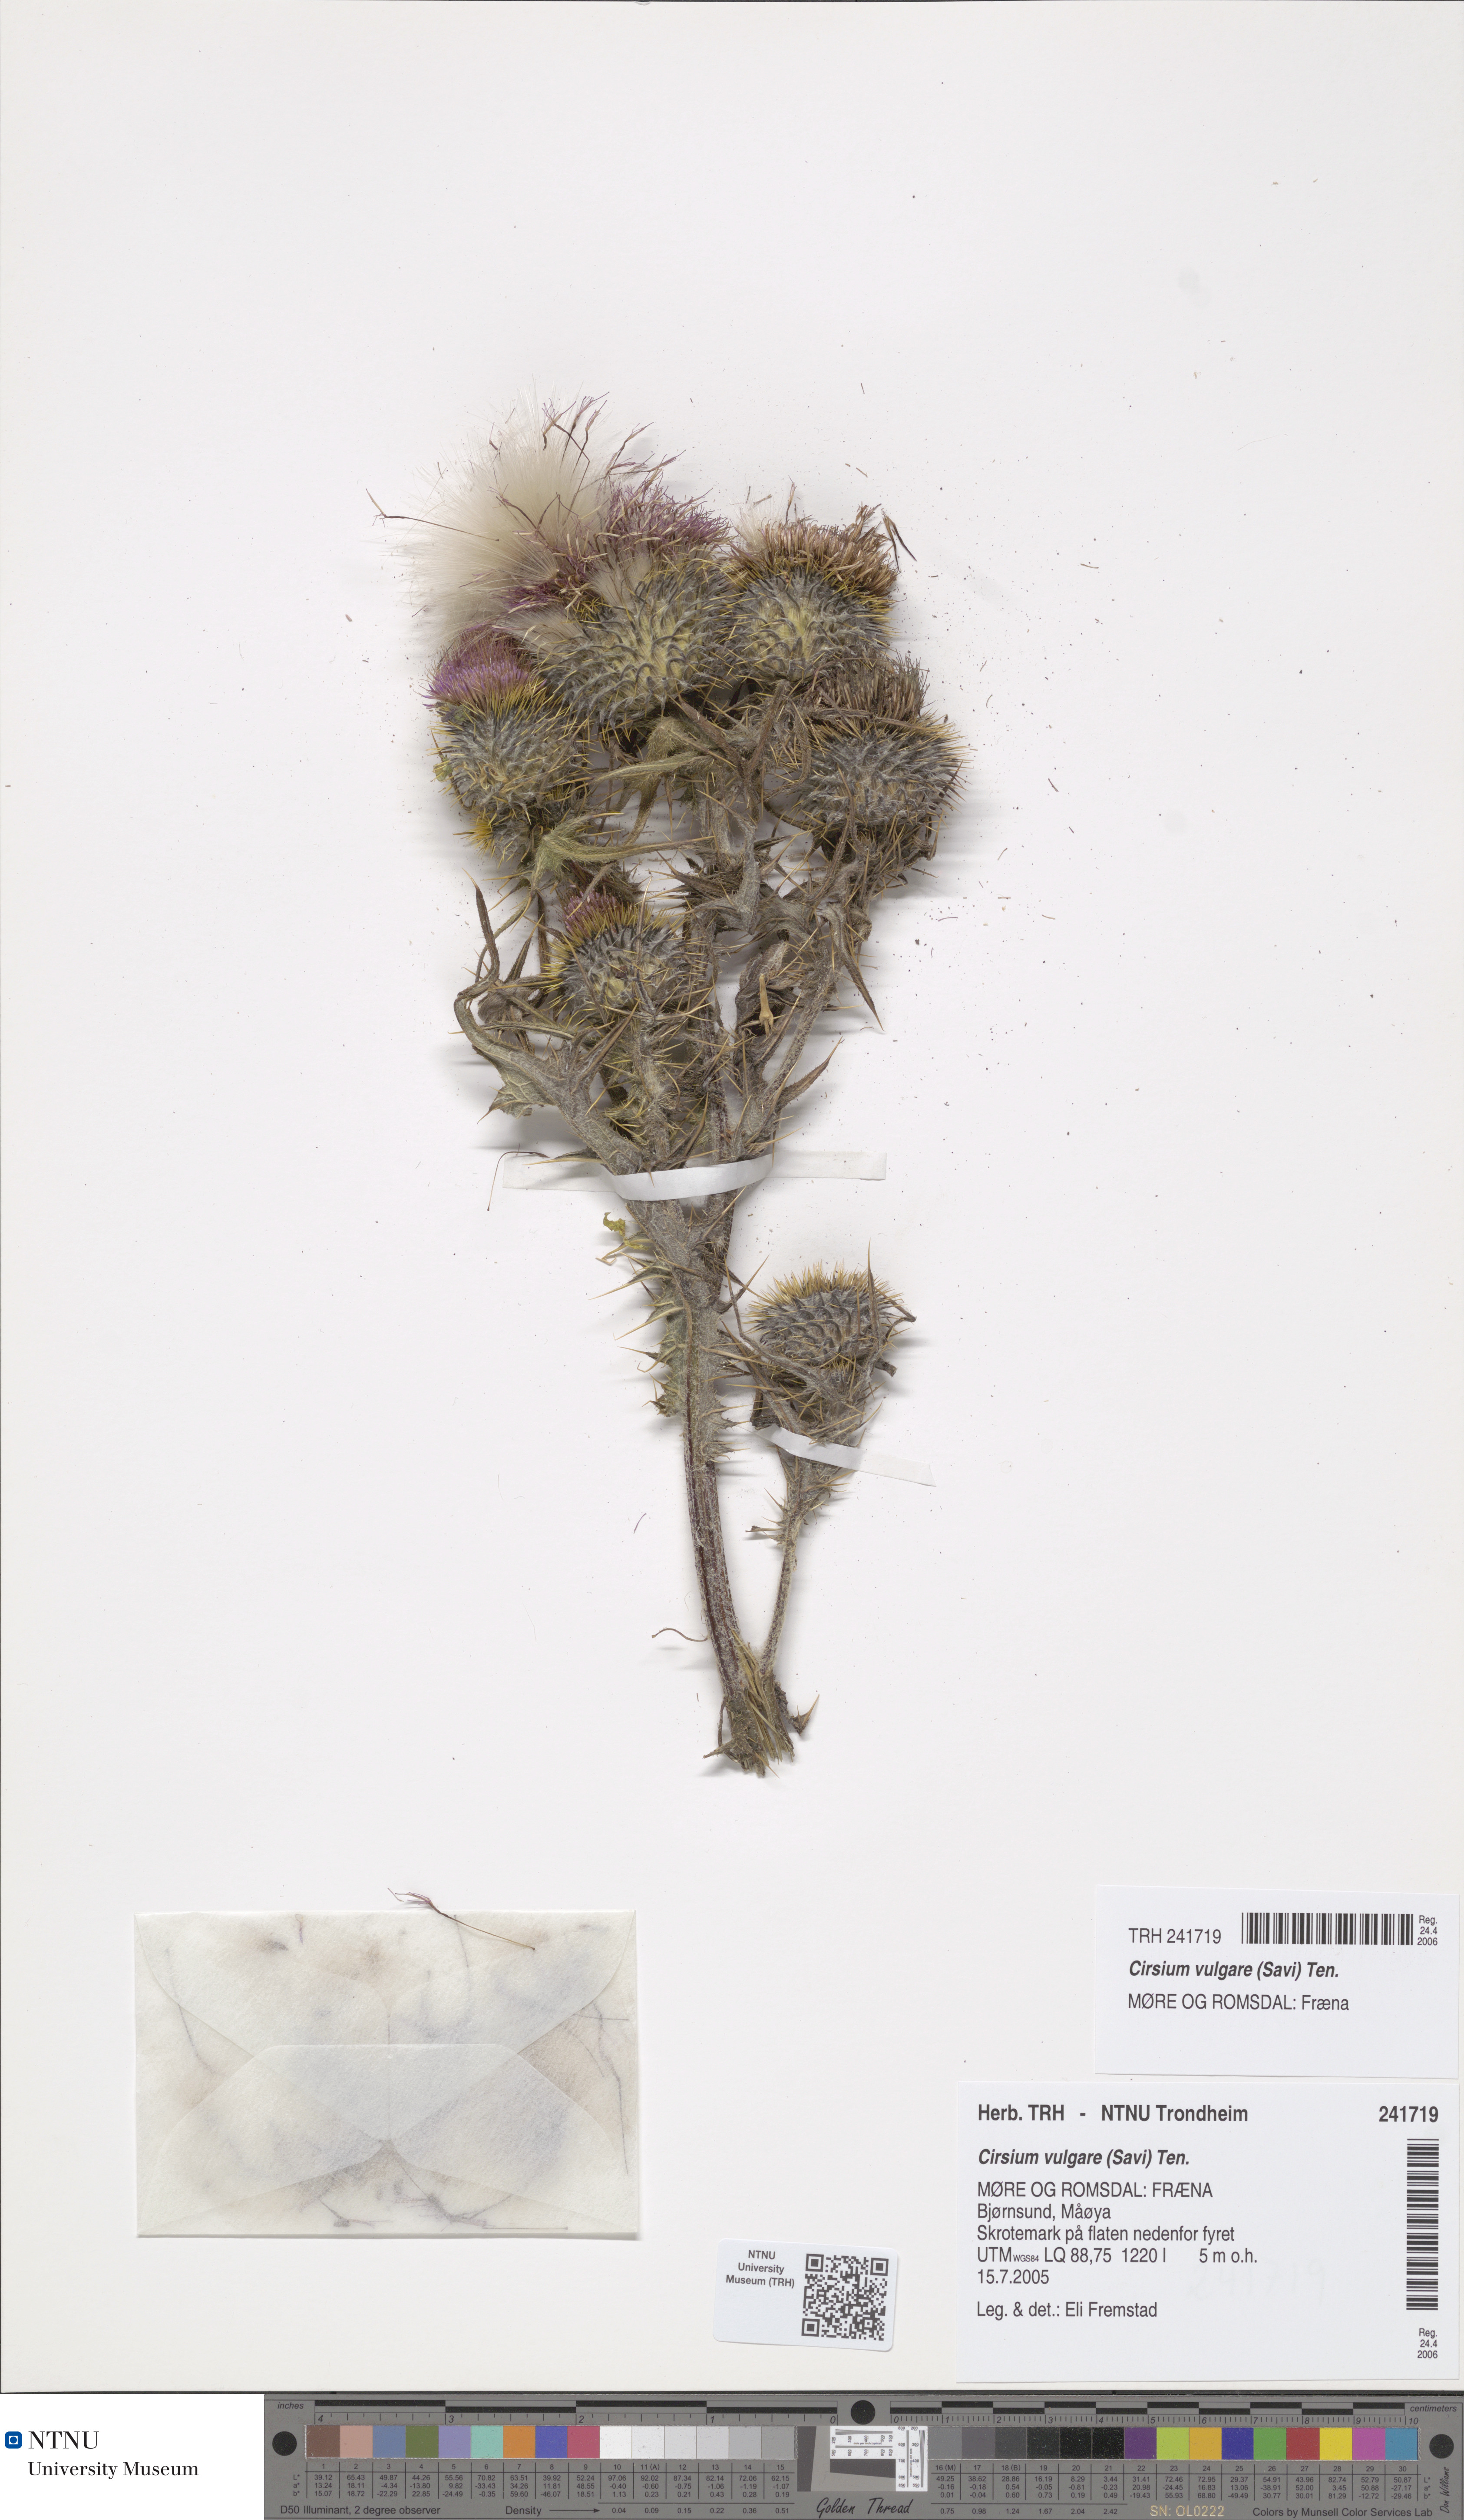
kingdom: Plantae
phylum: Tracheophyta
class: Magnoliopsida
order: Asterales
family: Asteraceae
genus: Cirsium
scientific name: Cirsium vulgare
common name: Bull thistle
